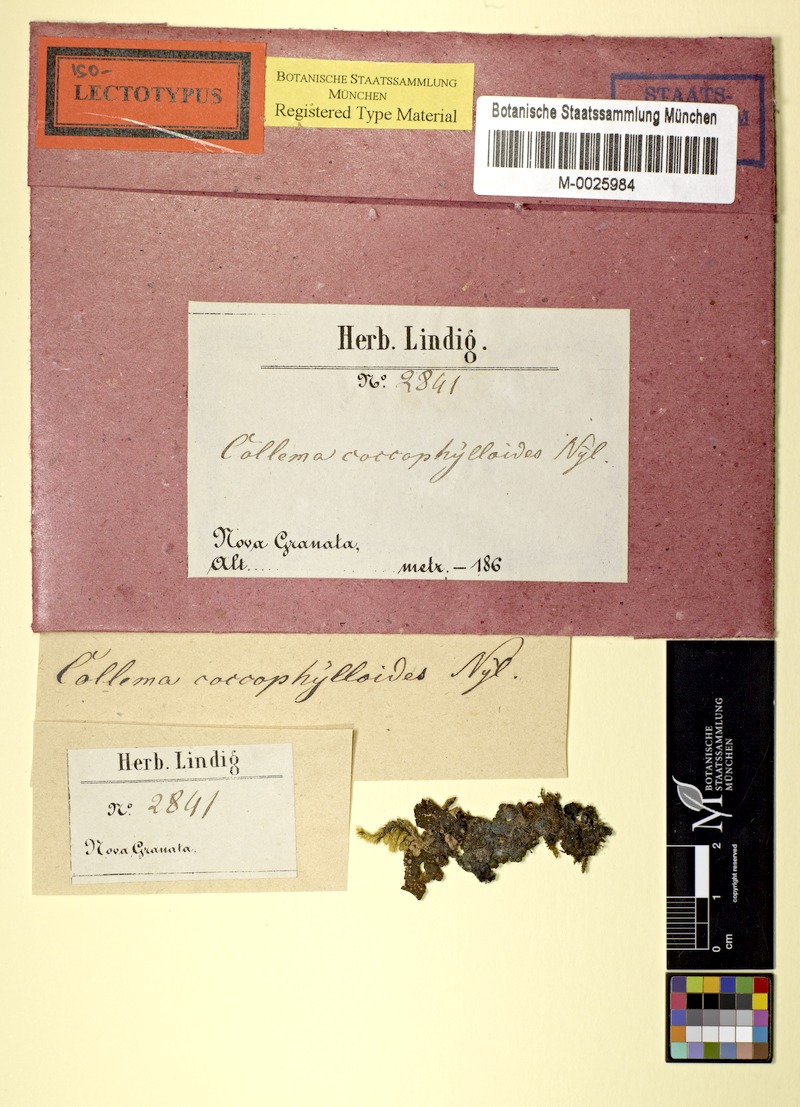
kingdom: Fungi
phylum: Ascomycota
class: Lecanoromycetes
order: Peltigerales
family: Collemataceae
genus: Rostania
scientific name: Rostania callibotrys
